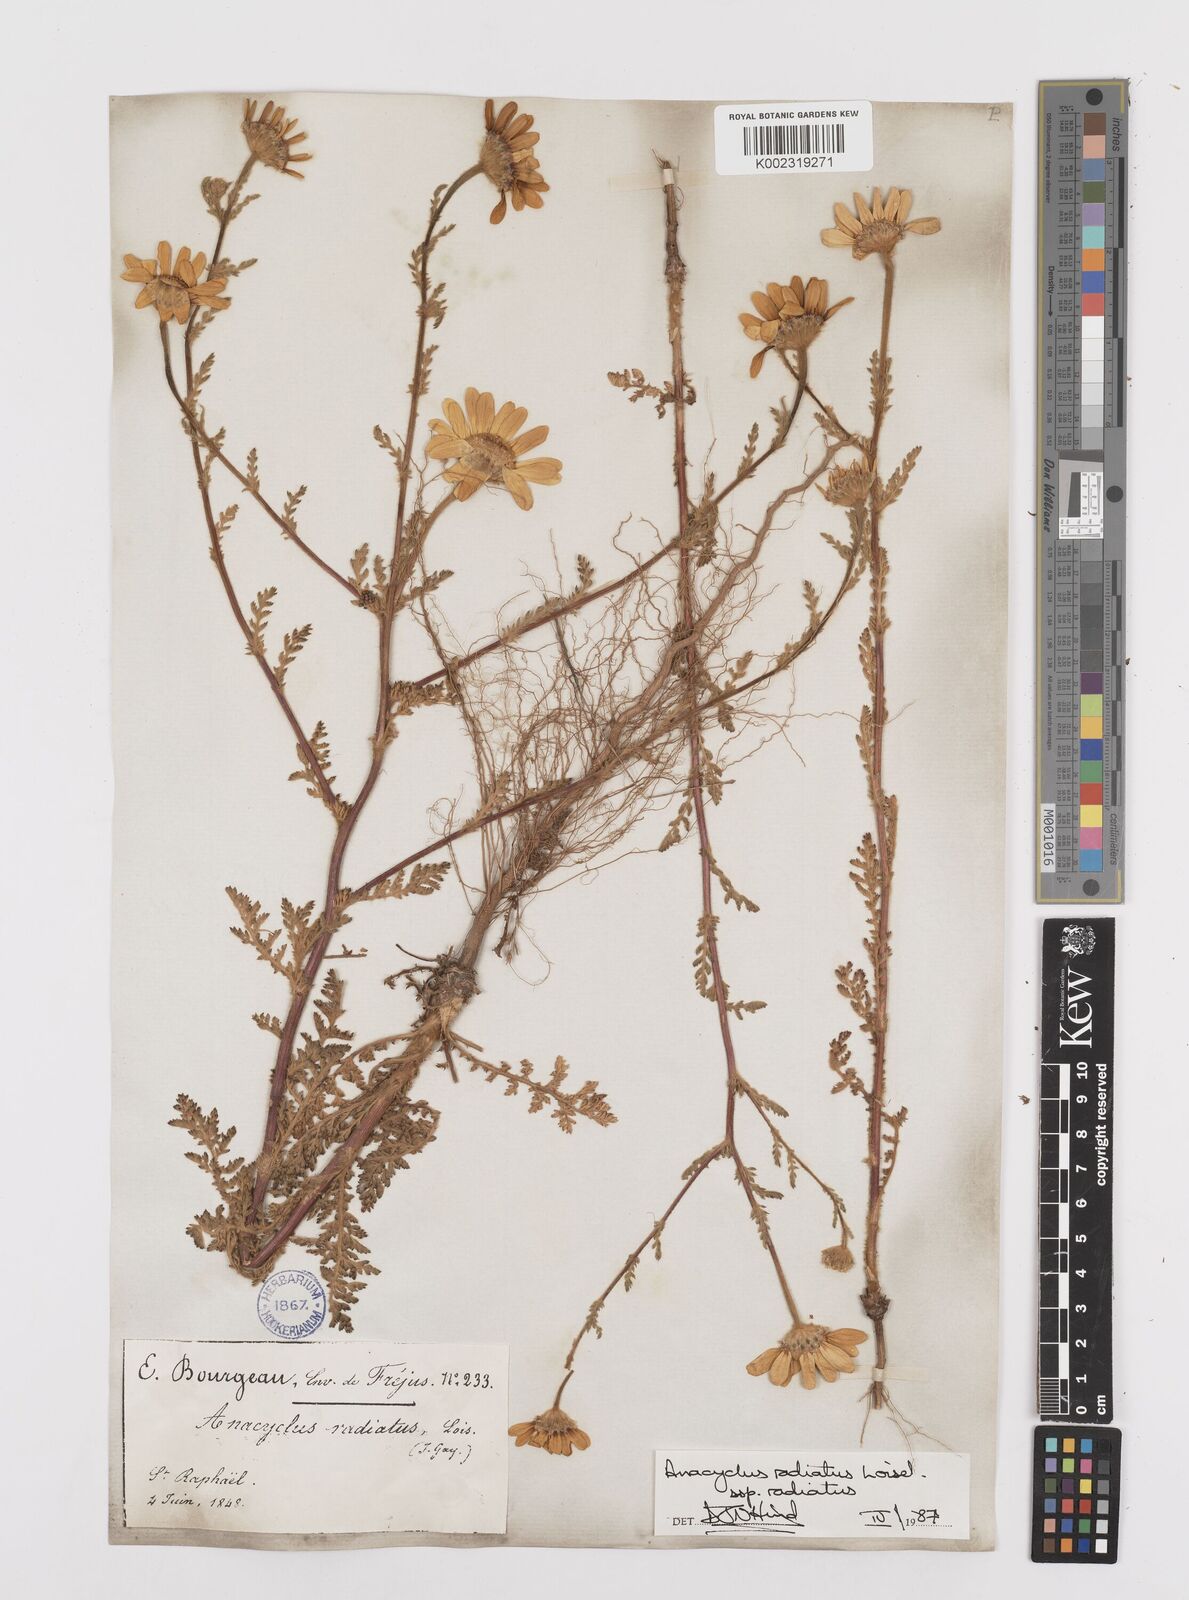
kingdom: Plantae
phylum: Tracheophyta
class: Magnoliopsida
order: Asterales
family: Asteraceae
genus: Anacyclus
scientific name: Anacyclus radiatus
